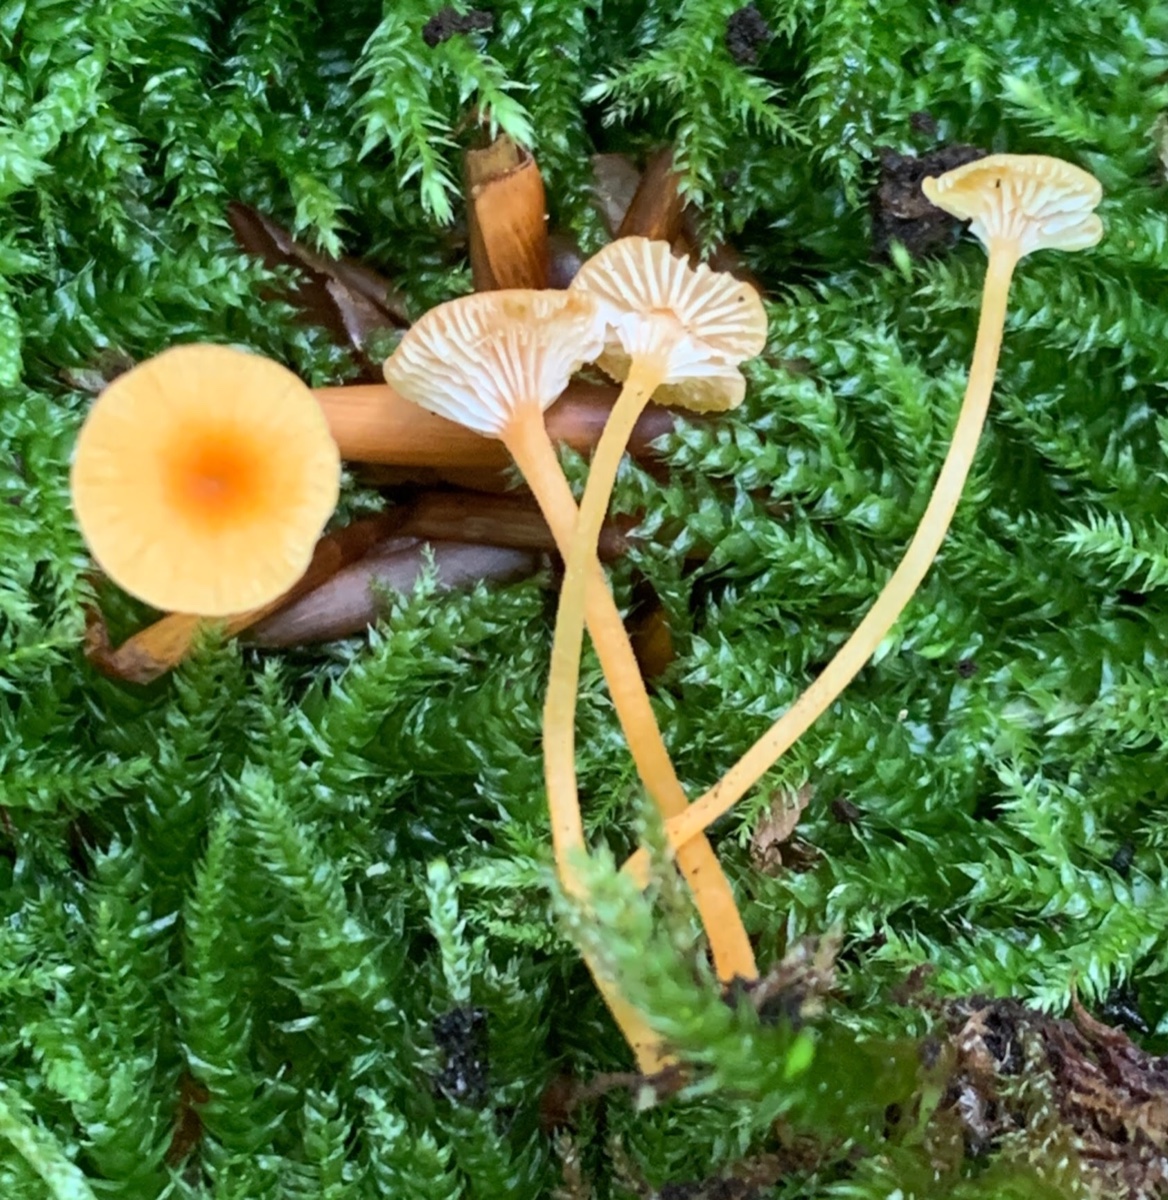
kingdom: Fungi
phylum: Basidiomycota
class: Agaricomycetes
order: Hymenochaetales
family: Rickenellaceae
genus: Rickenella
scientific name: Rickenella fibula
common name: orange mosnavlehat
